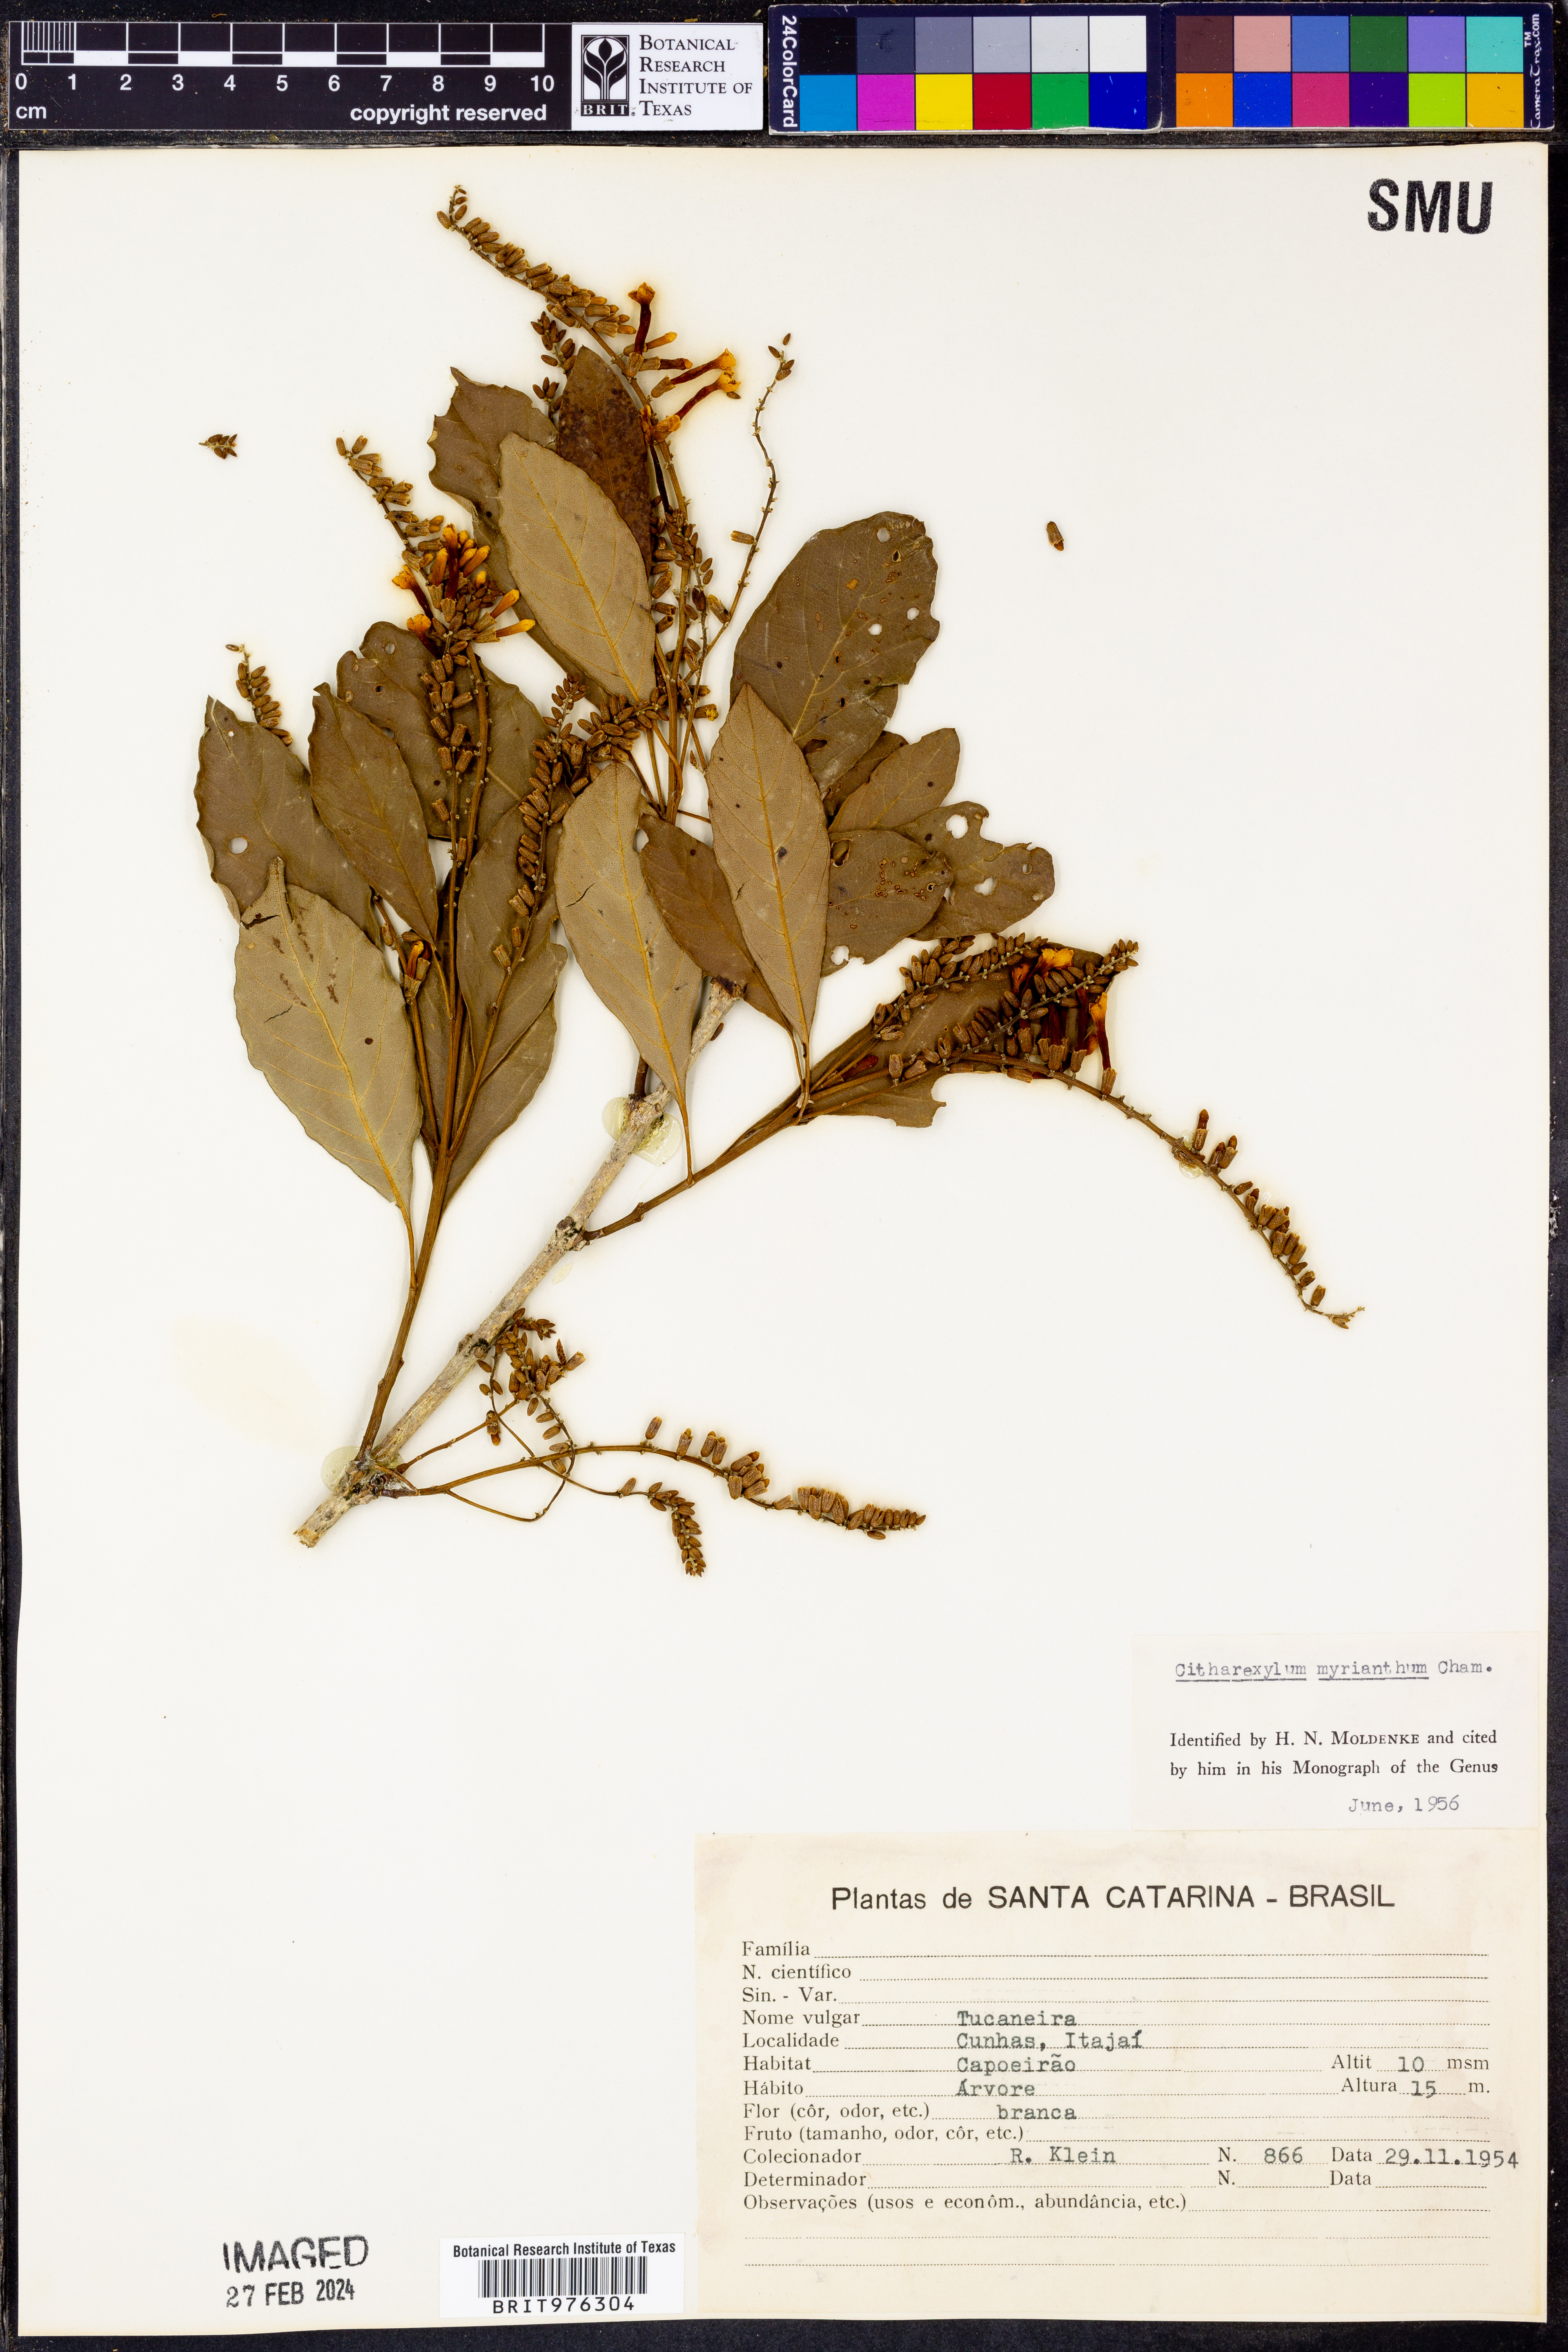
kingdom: Plantae
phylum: Tracheophyta
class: Magnoliopsida
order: Lamiales
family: Verbenaceae
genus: Citharexylum
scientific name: Citharexylum
